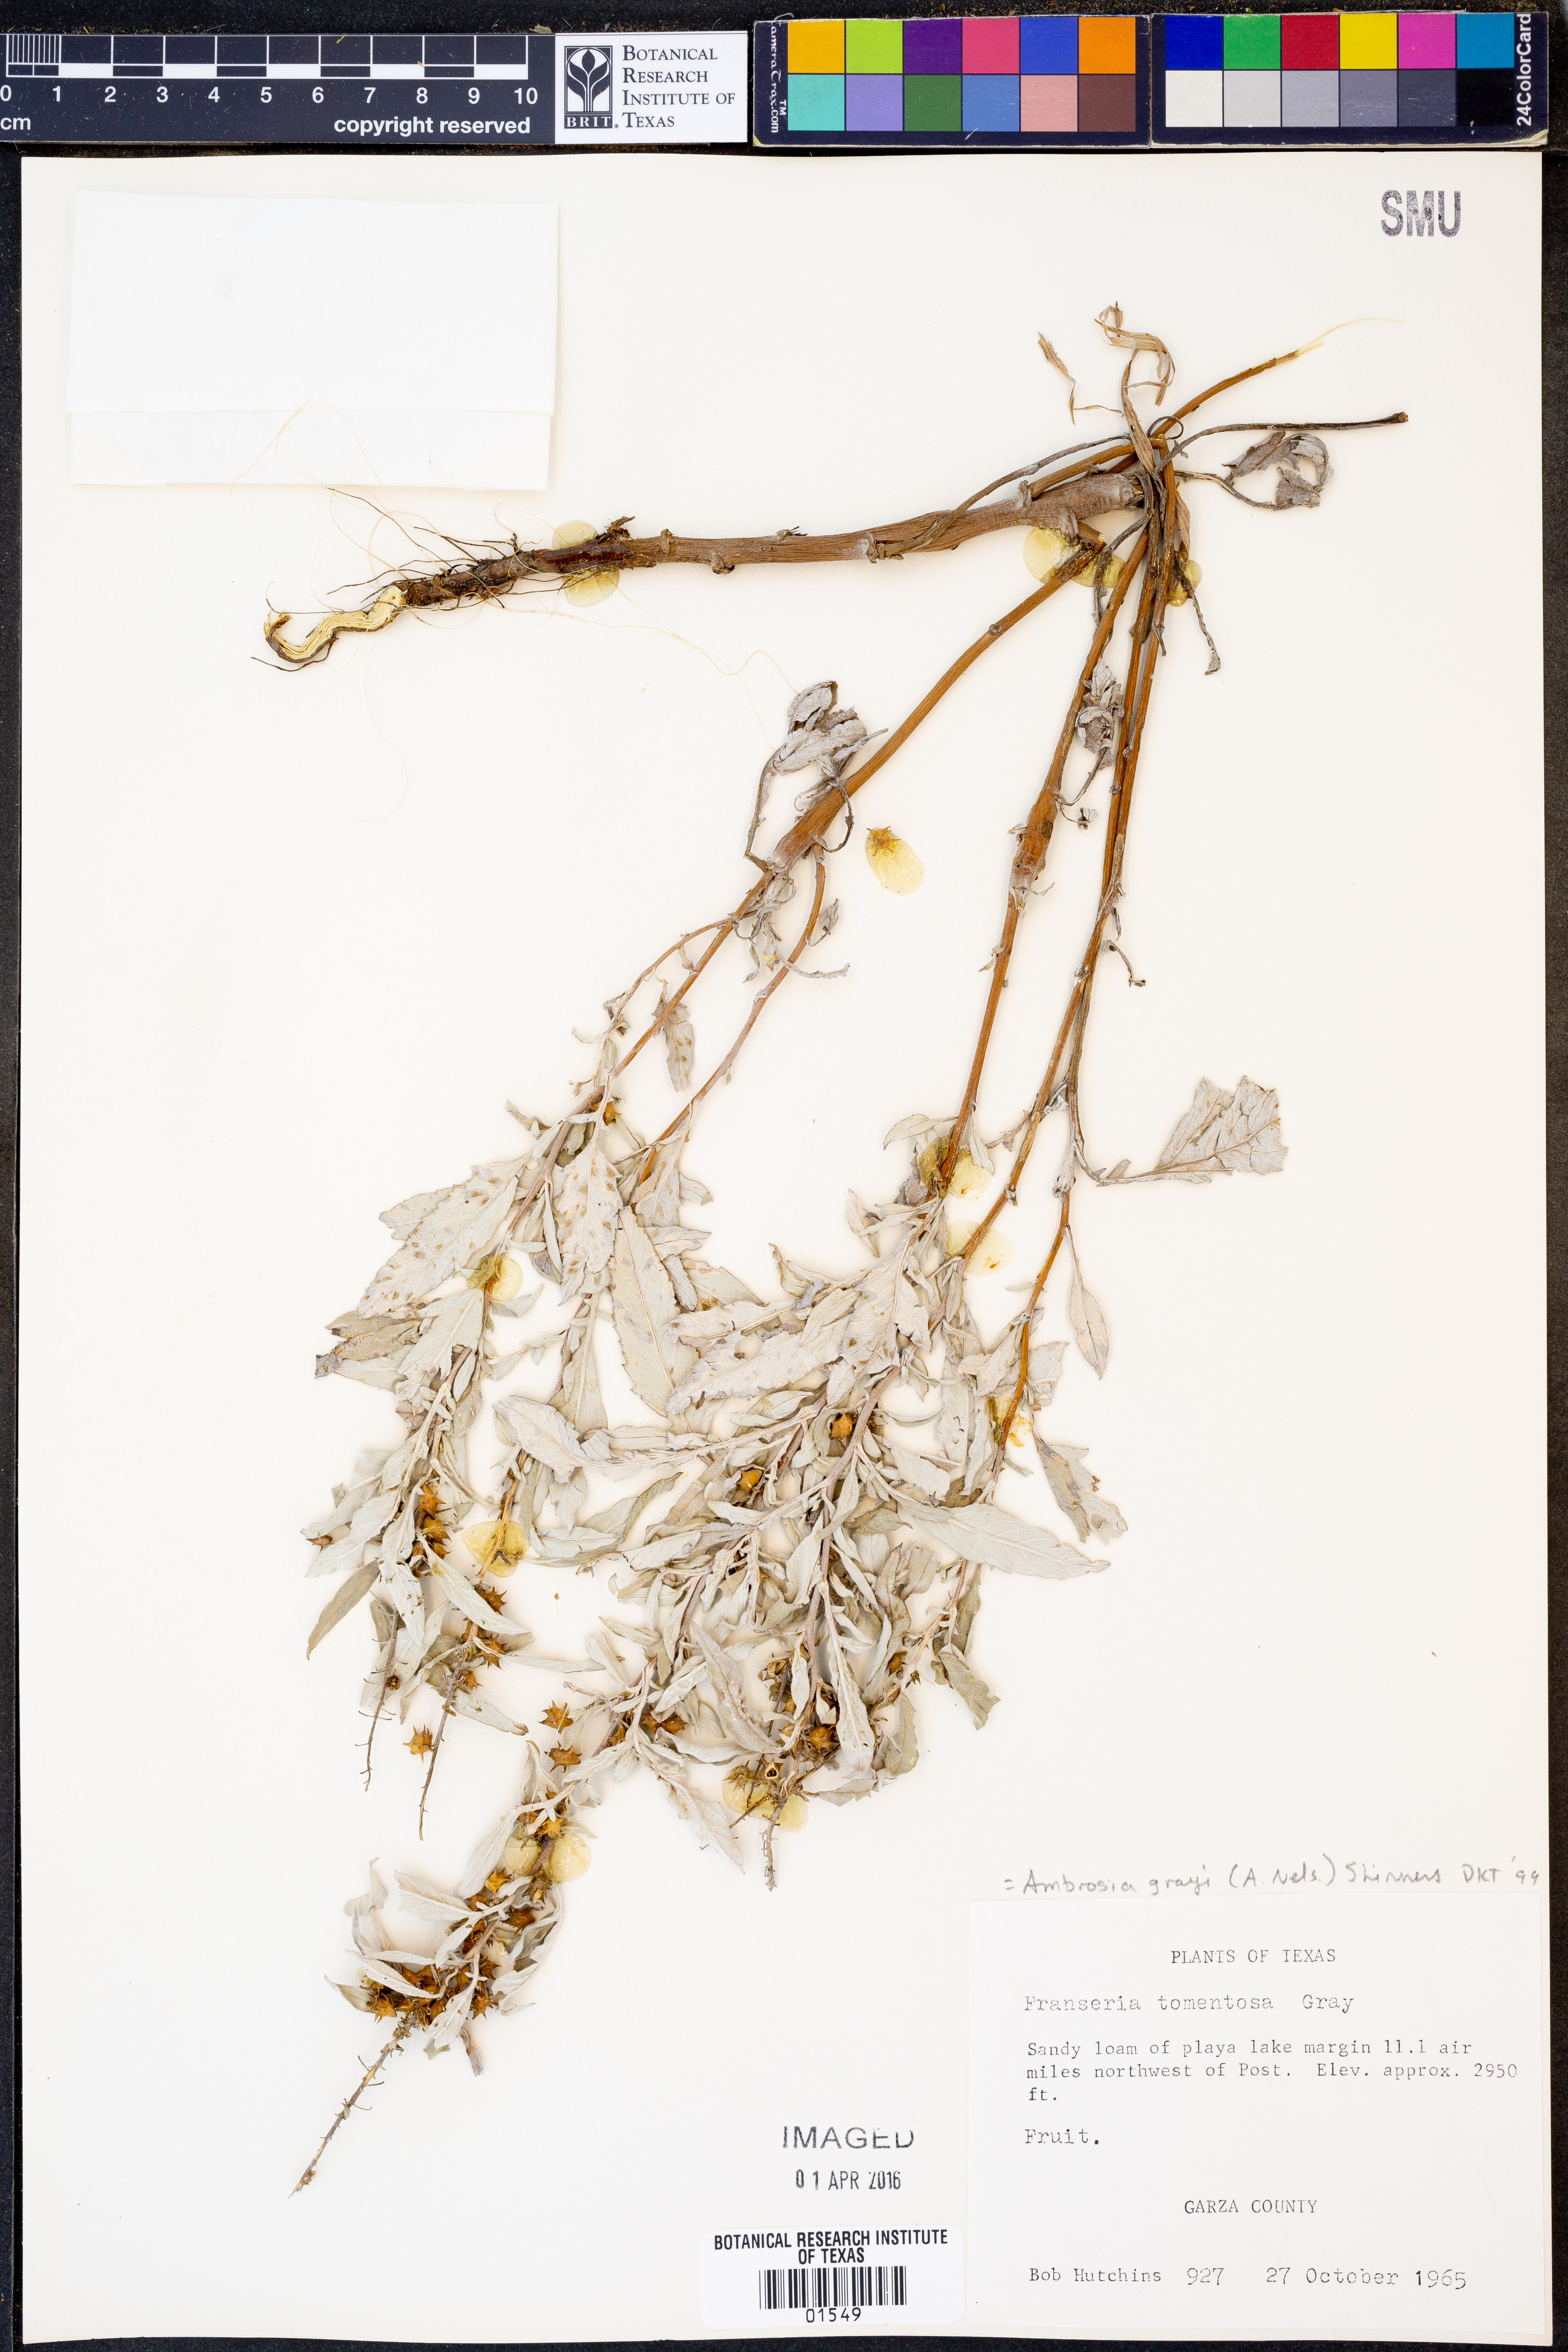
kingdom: Plantae
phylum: Tracheophyta
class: Magnoliopsida
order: Asterales
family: Asteraceae
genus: Ambrosia
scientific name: Ambrosia grayi
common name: Bur ragweed
